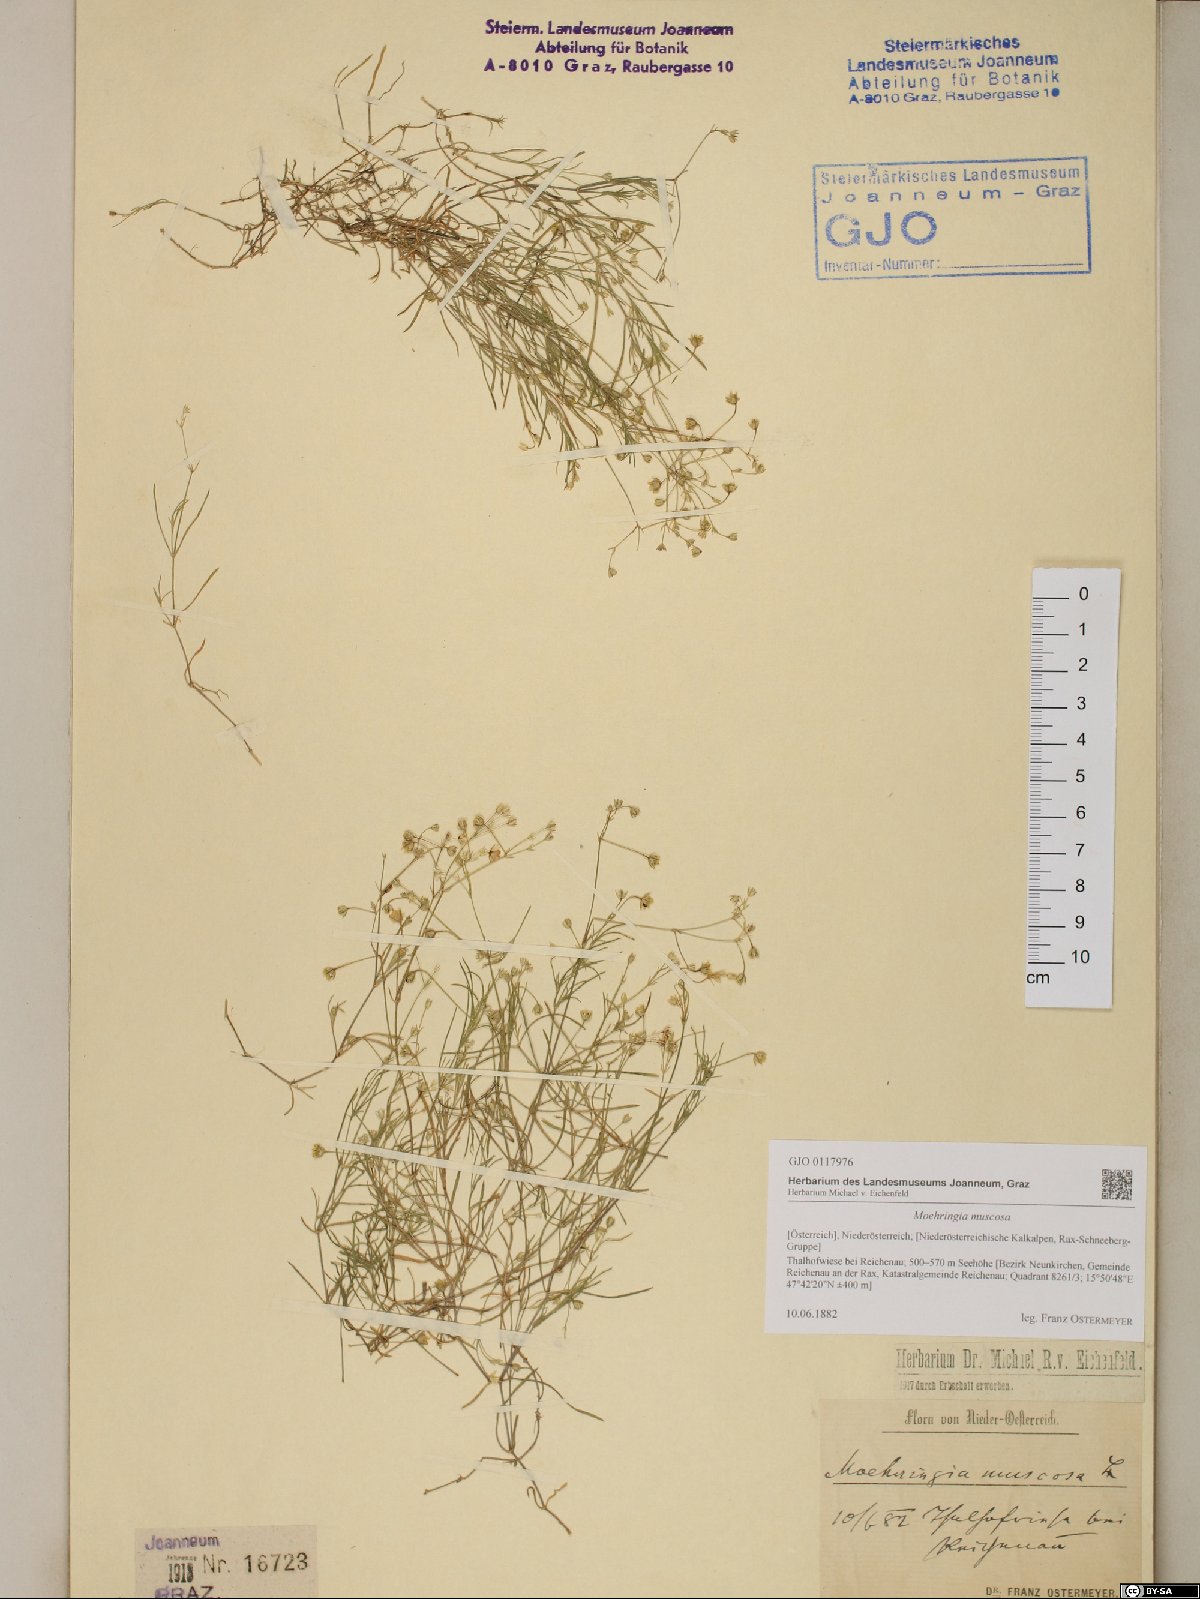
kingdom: Plantae
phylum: Tracheophyta
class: Magnoliopsida
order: Caryophyllales
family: Caryophyllaceae
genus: Moehringia
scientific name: Moehringia muscosa
